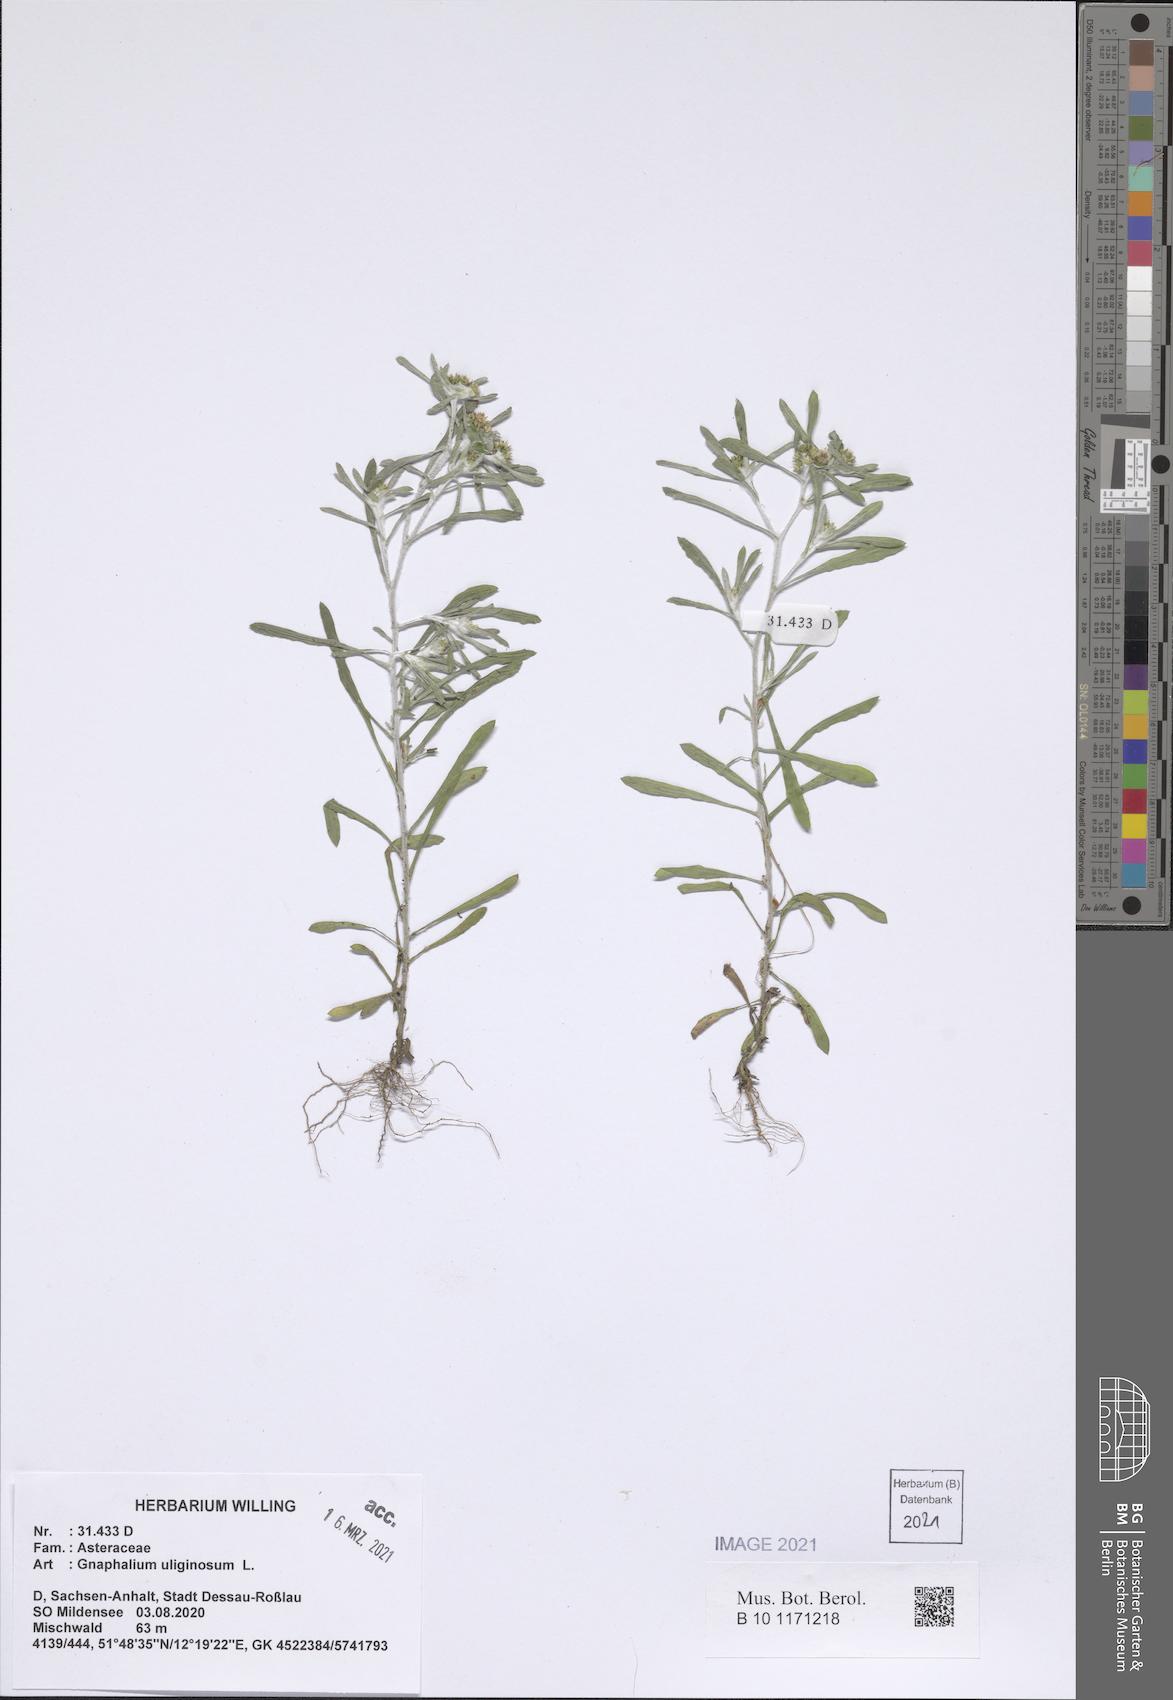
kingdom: Plantae
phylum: Tracheophyta
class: Magnoliopsida
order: Asterales
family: Asteraceae
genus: Gnaphalium
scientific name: Gnaphalium uliginosum
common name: Marsh cudweed
